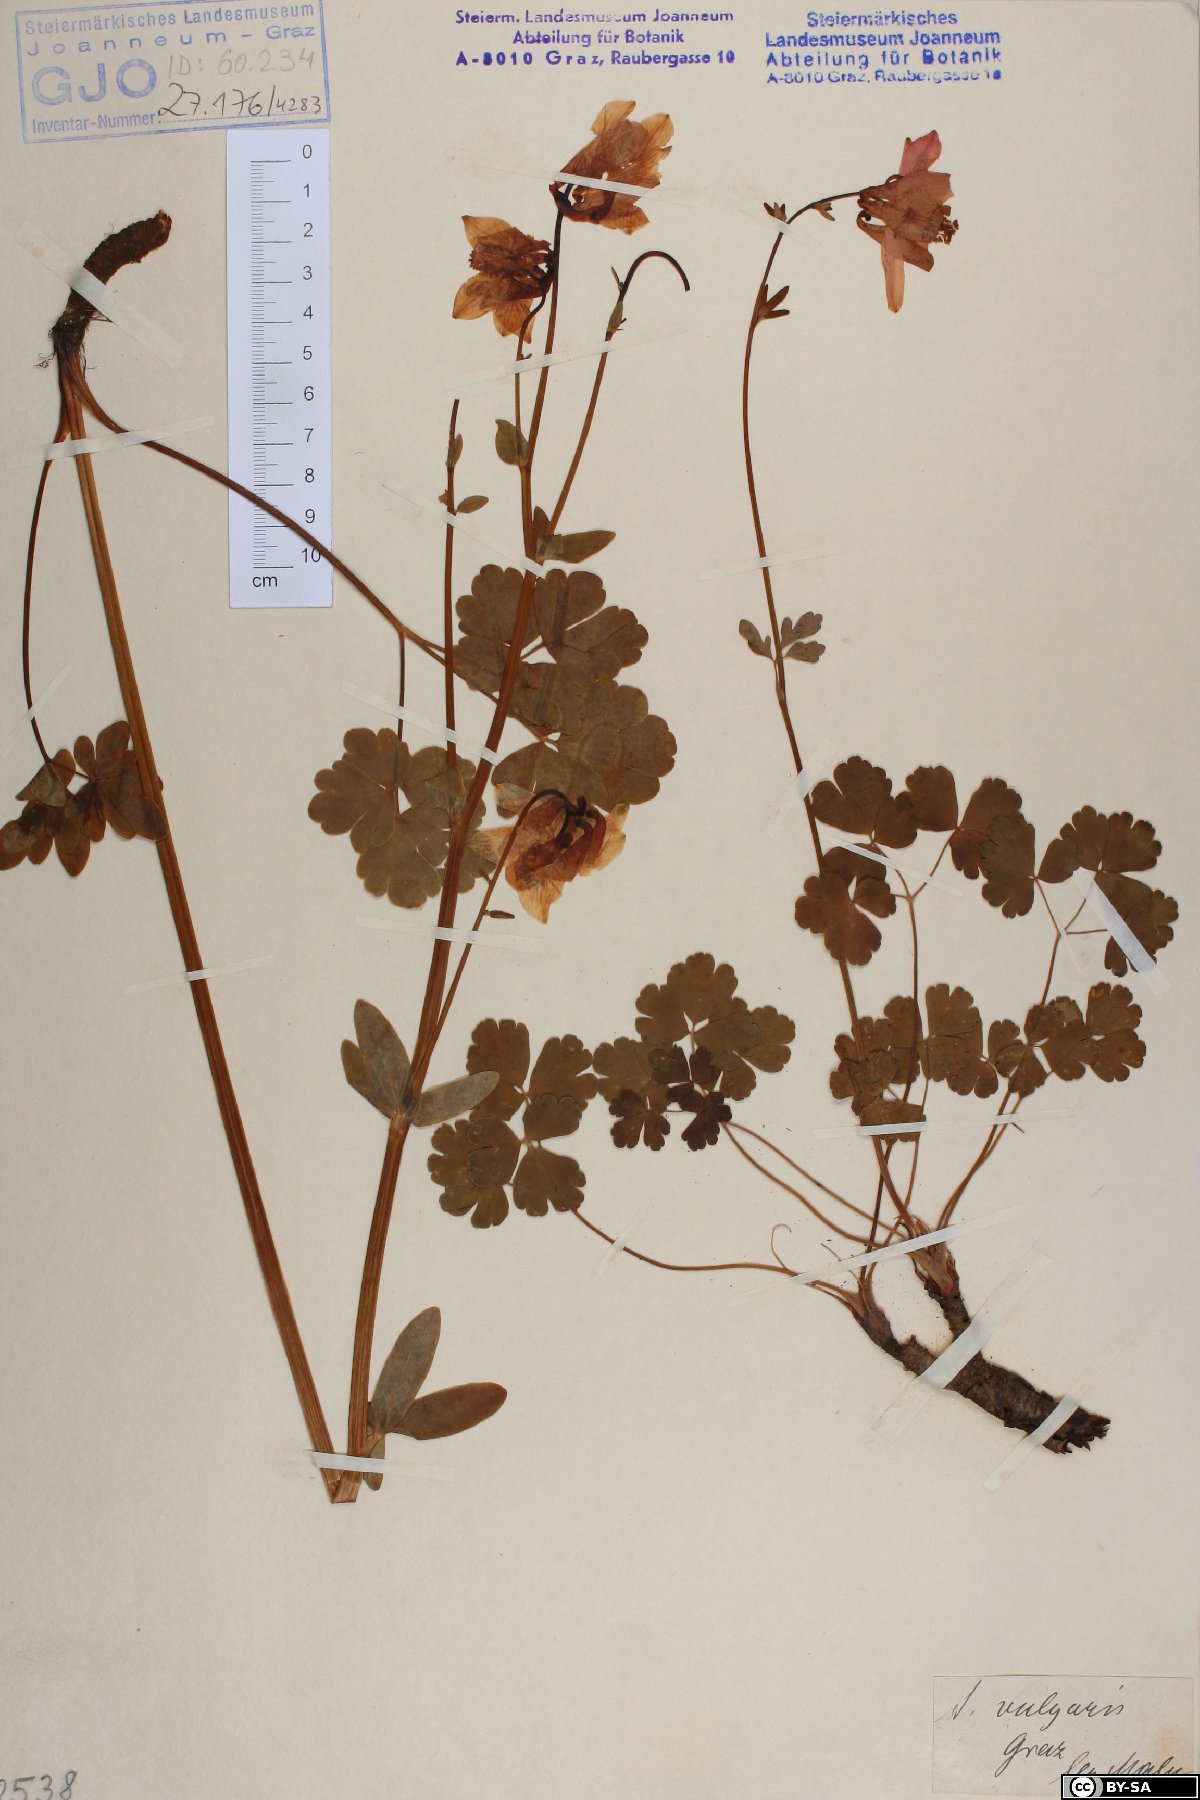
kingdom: Plantae
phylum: Tracheophyta
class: Magnoliopsida
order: Ranunculales
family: Ranunculaceae
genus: Aquilegia
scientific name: Aquilegia vulgaris
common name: Columbine
